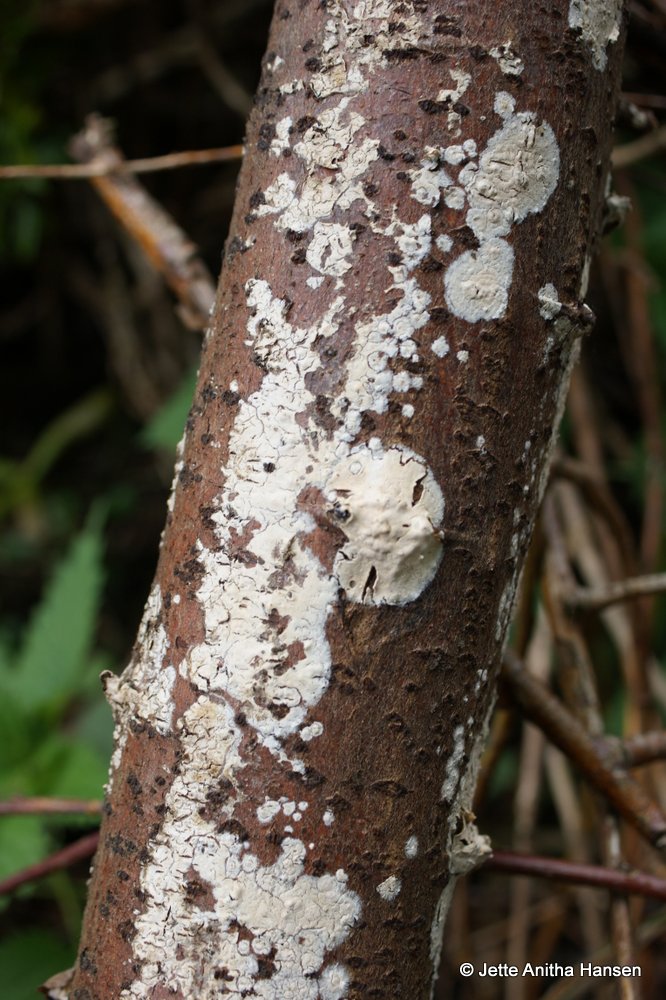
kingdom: Fungi
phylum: Basidiomycota
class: Agaricomycetes
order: Agaricales
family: Physalacriaceae
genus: Cylindrobasidium
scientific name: Cylindrobasidium evolvens
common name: sprækkehinde
